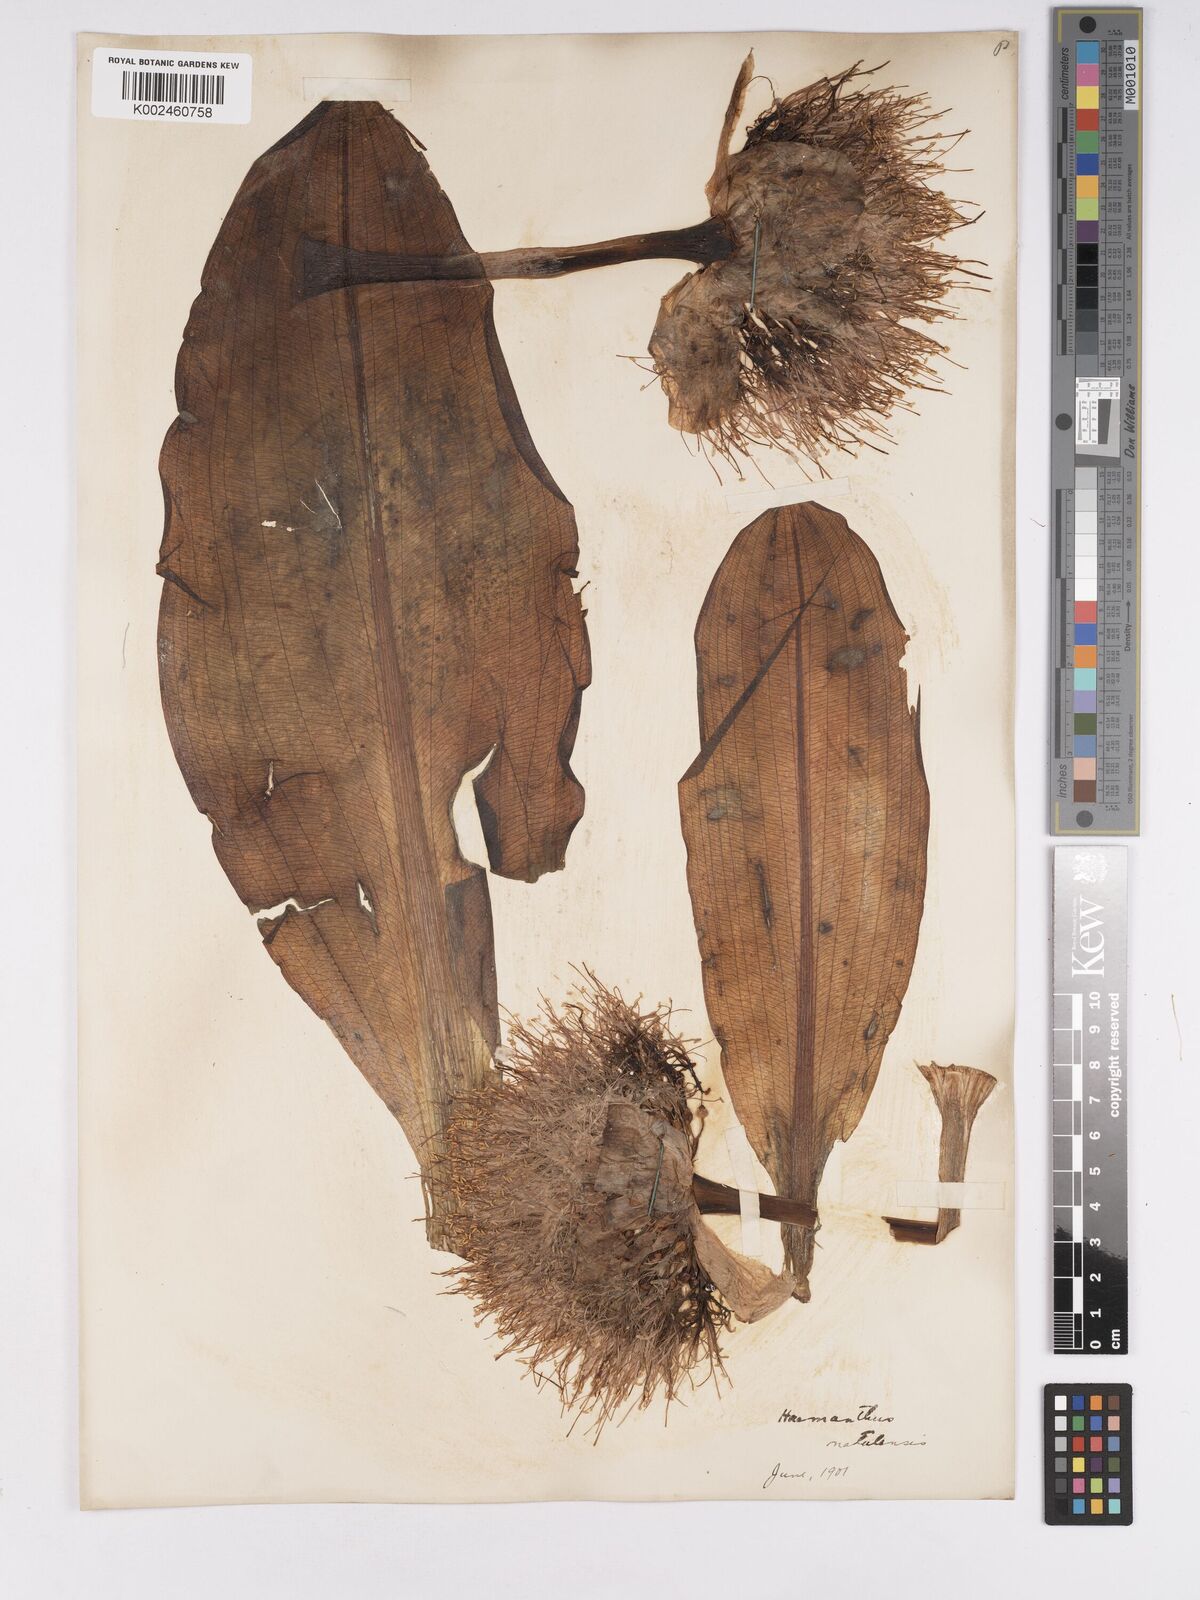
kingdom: Plantae
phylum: Tracheophyta
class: Liliopsida
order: Asparagales
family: Amaryllidaceae
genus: Scadoxus
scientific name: Scadoxus puniceus
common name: Royal-paintbrush
